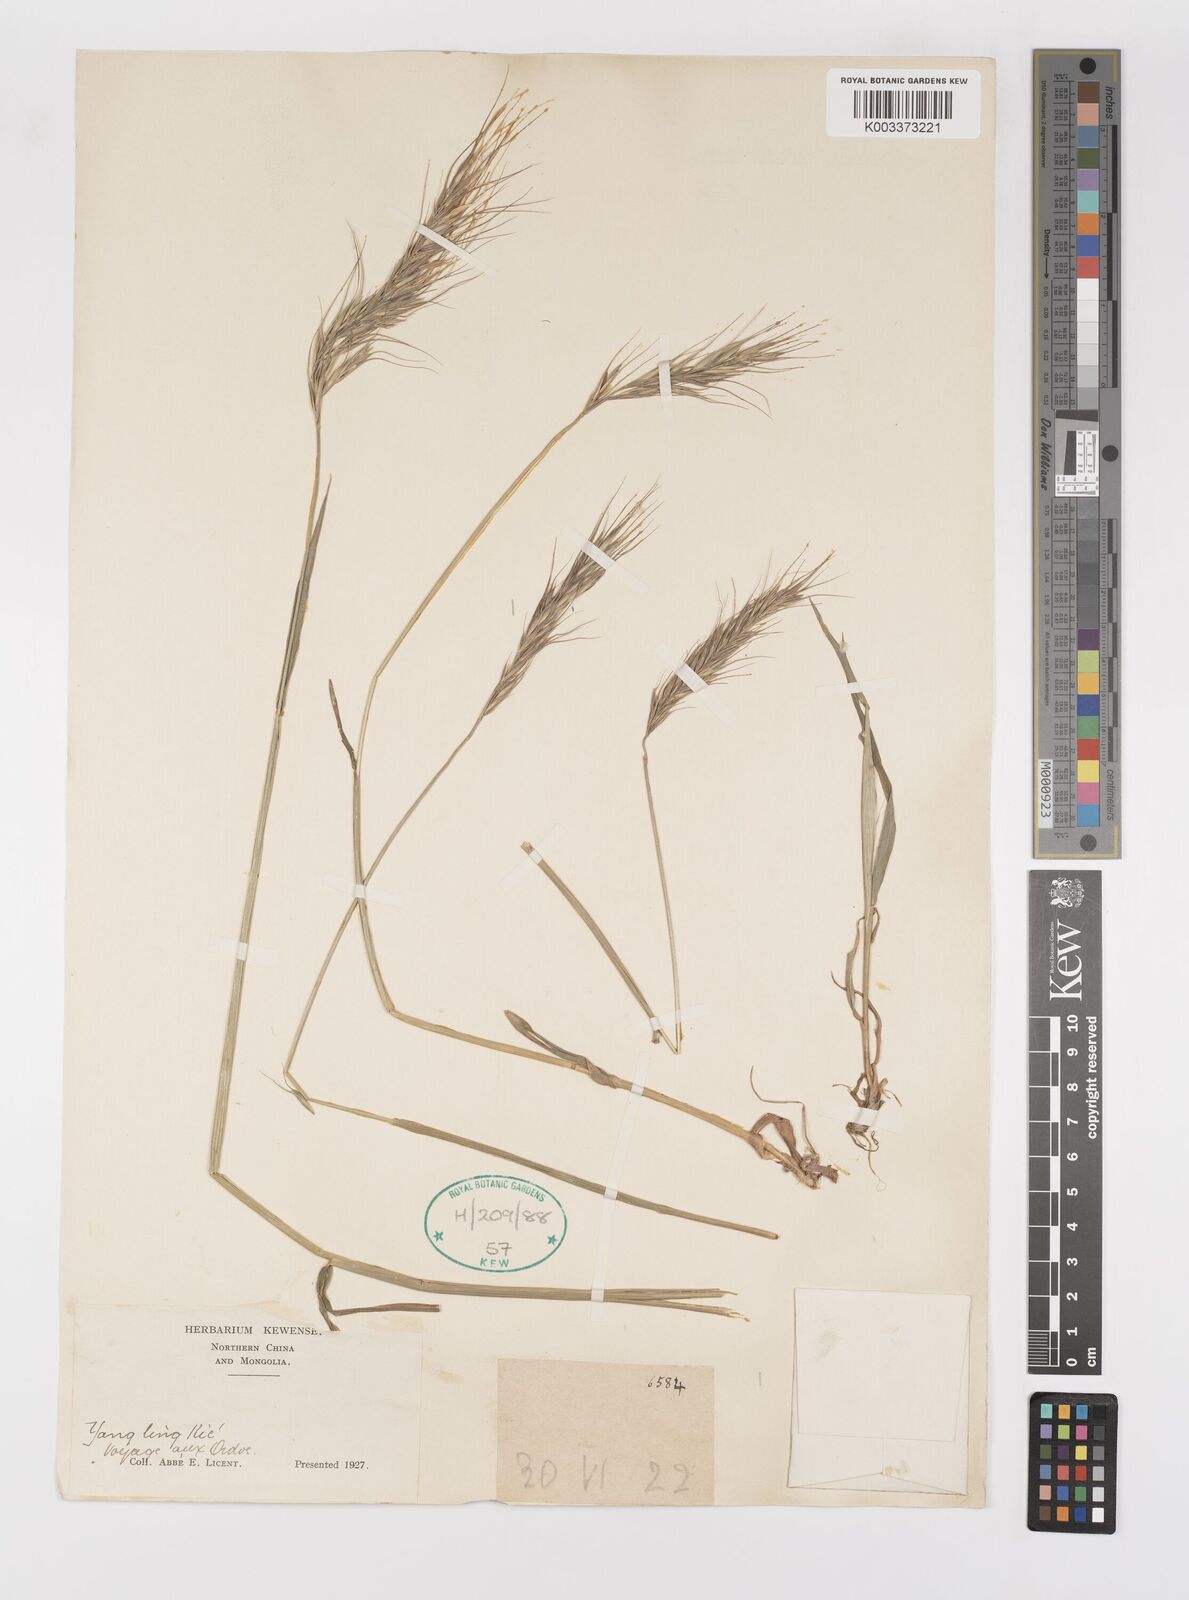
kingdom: Plantae
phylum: Tracheophyta
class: Liliopsida
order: Poales
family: Poaceae
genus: Elymus
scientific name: Elymus
